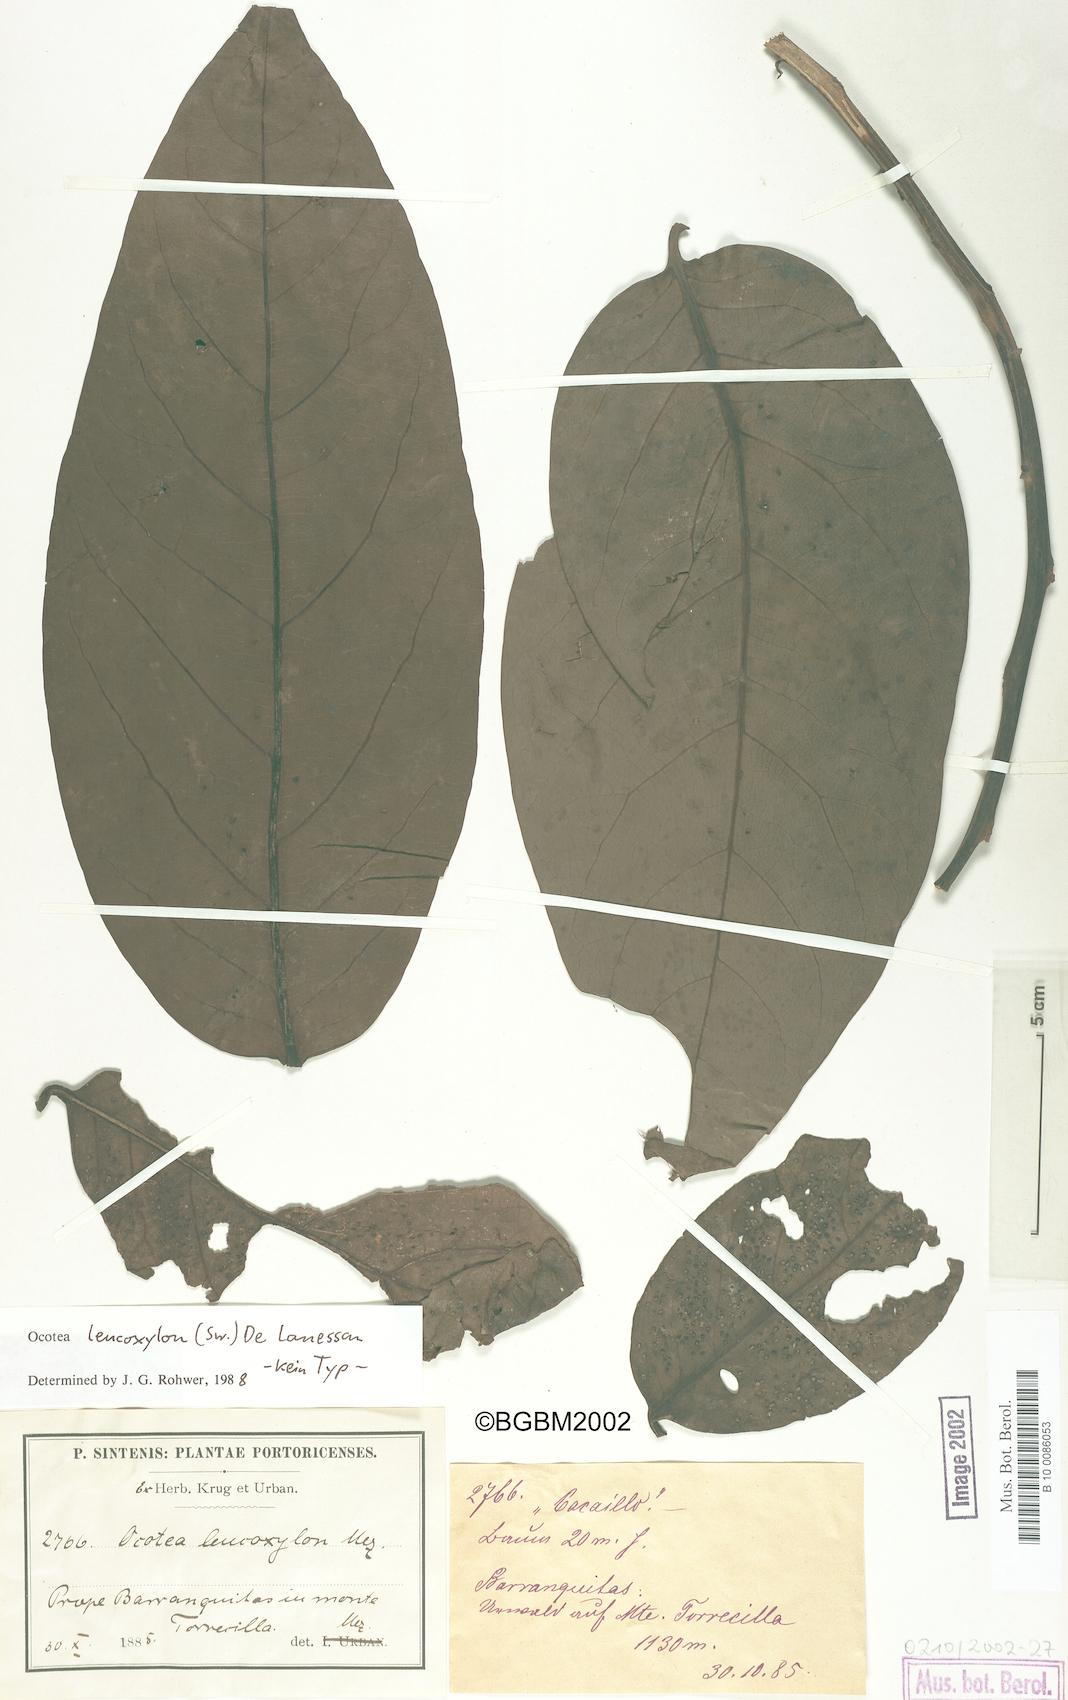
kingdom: Plantae
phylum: Tracheophyta
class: Magnoliopsida
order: Laurales
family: Lauraceae
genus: Ocotea
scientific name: Ocotea leucoxylon
